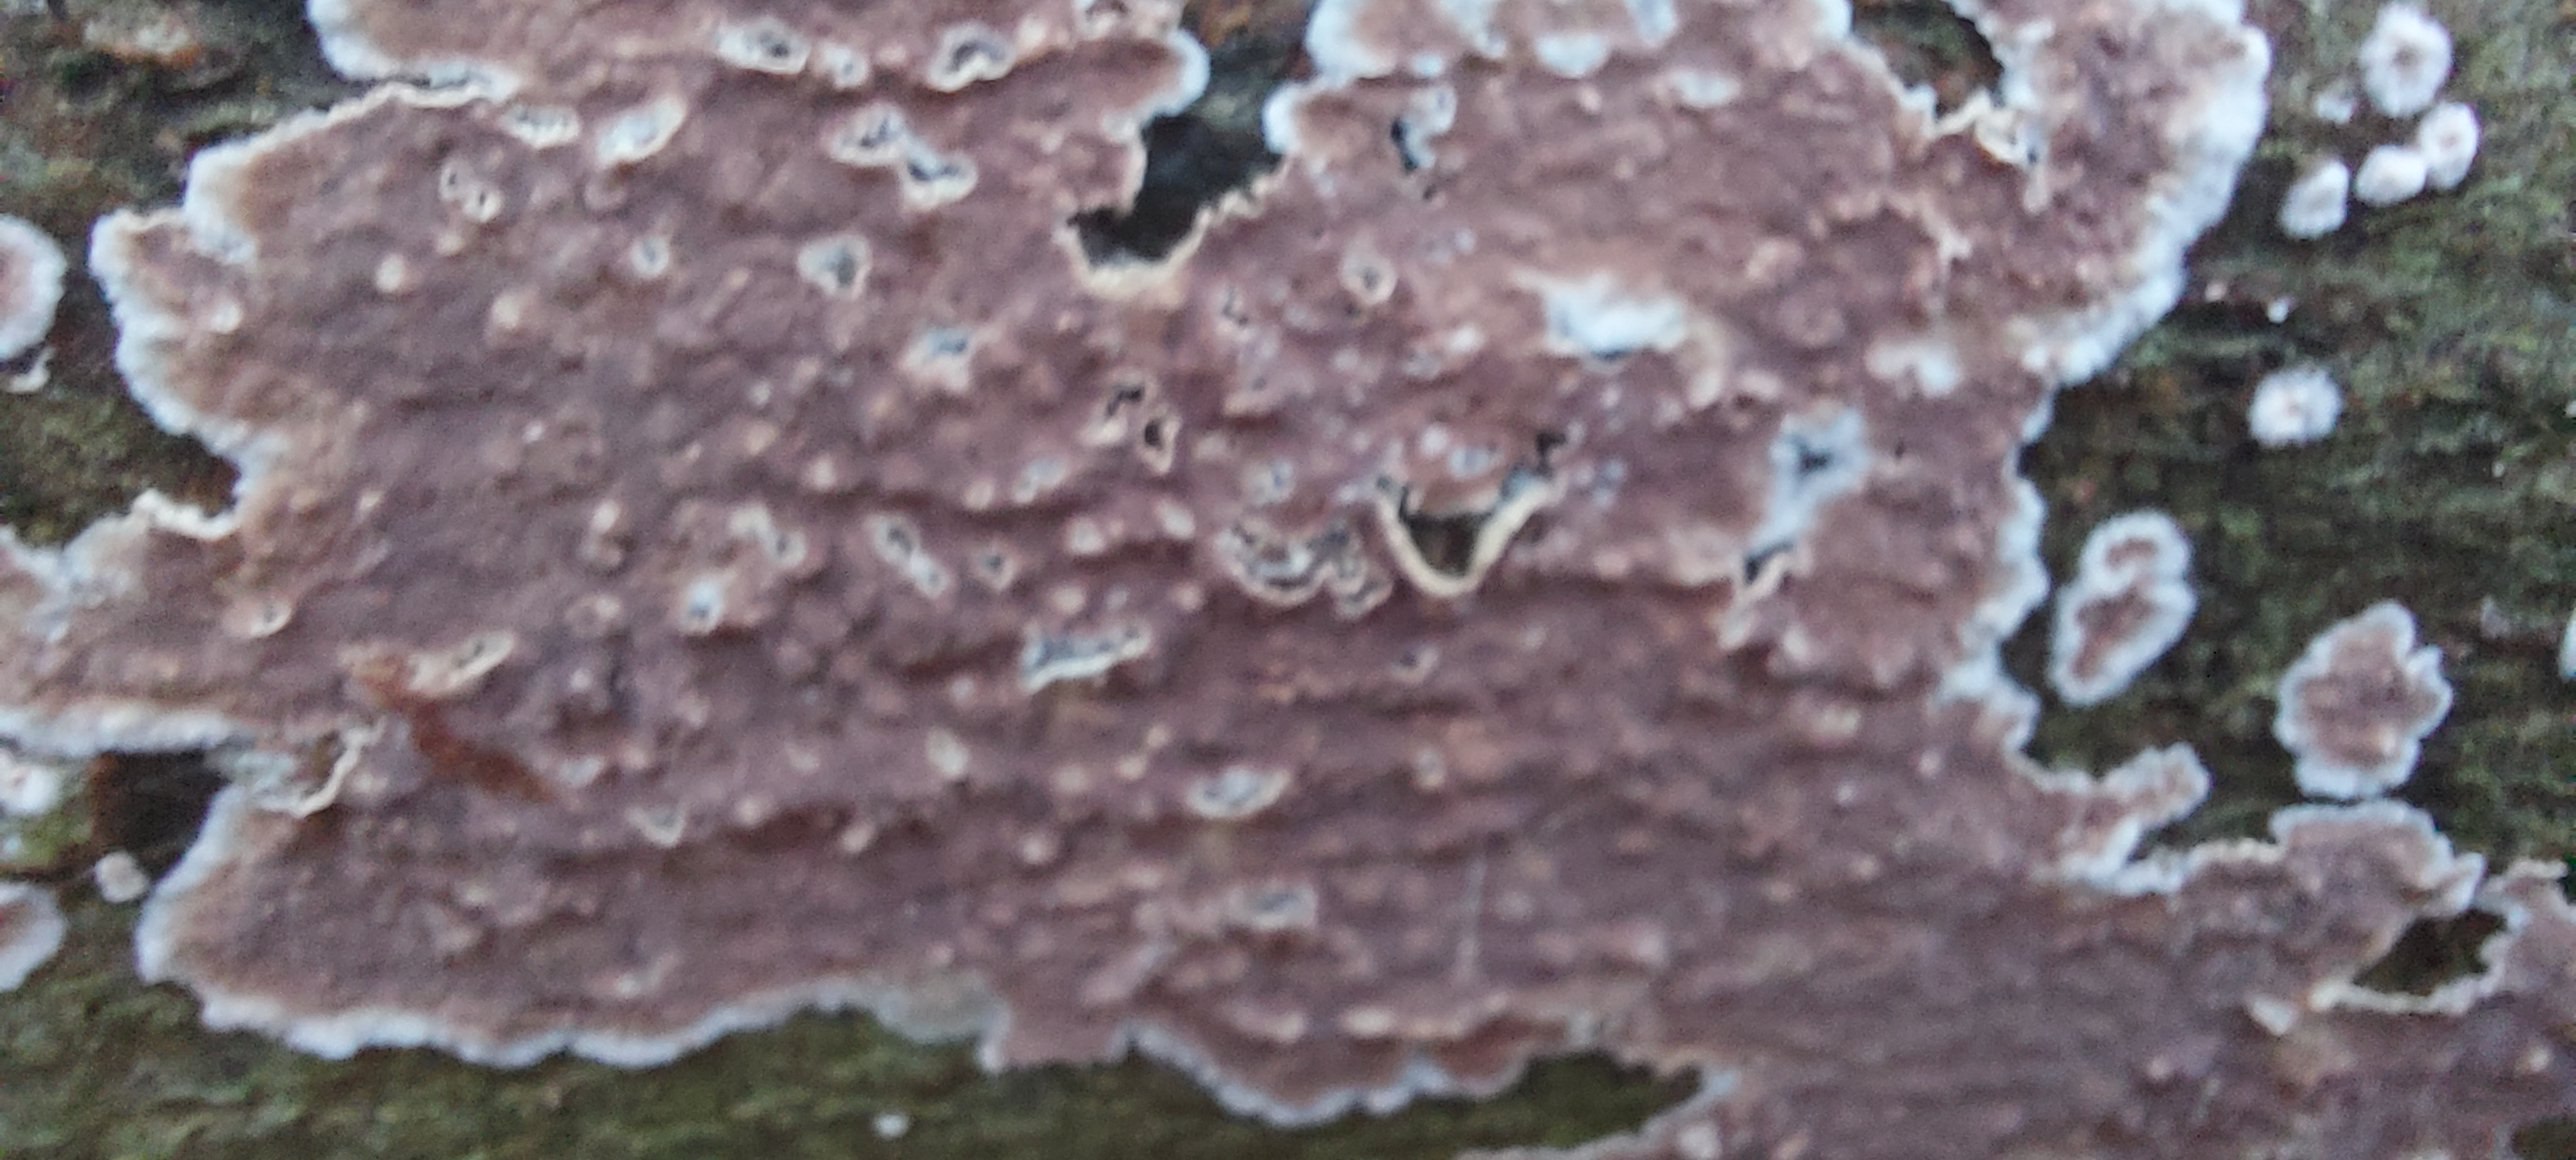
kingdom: Fungi
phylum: Basidiomycota
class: Agaricomycetes
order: Agaricales
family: Physalacriaceae
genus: Cylindrobasidium
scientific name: Cylindrobasidium evolvens
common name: sprækkehinde
